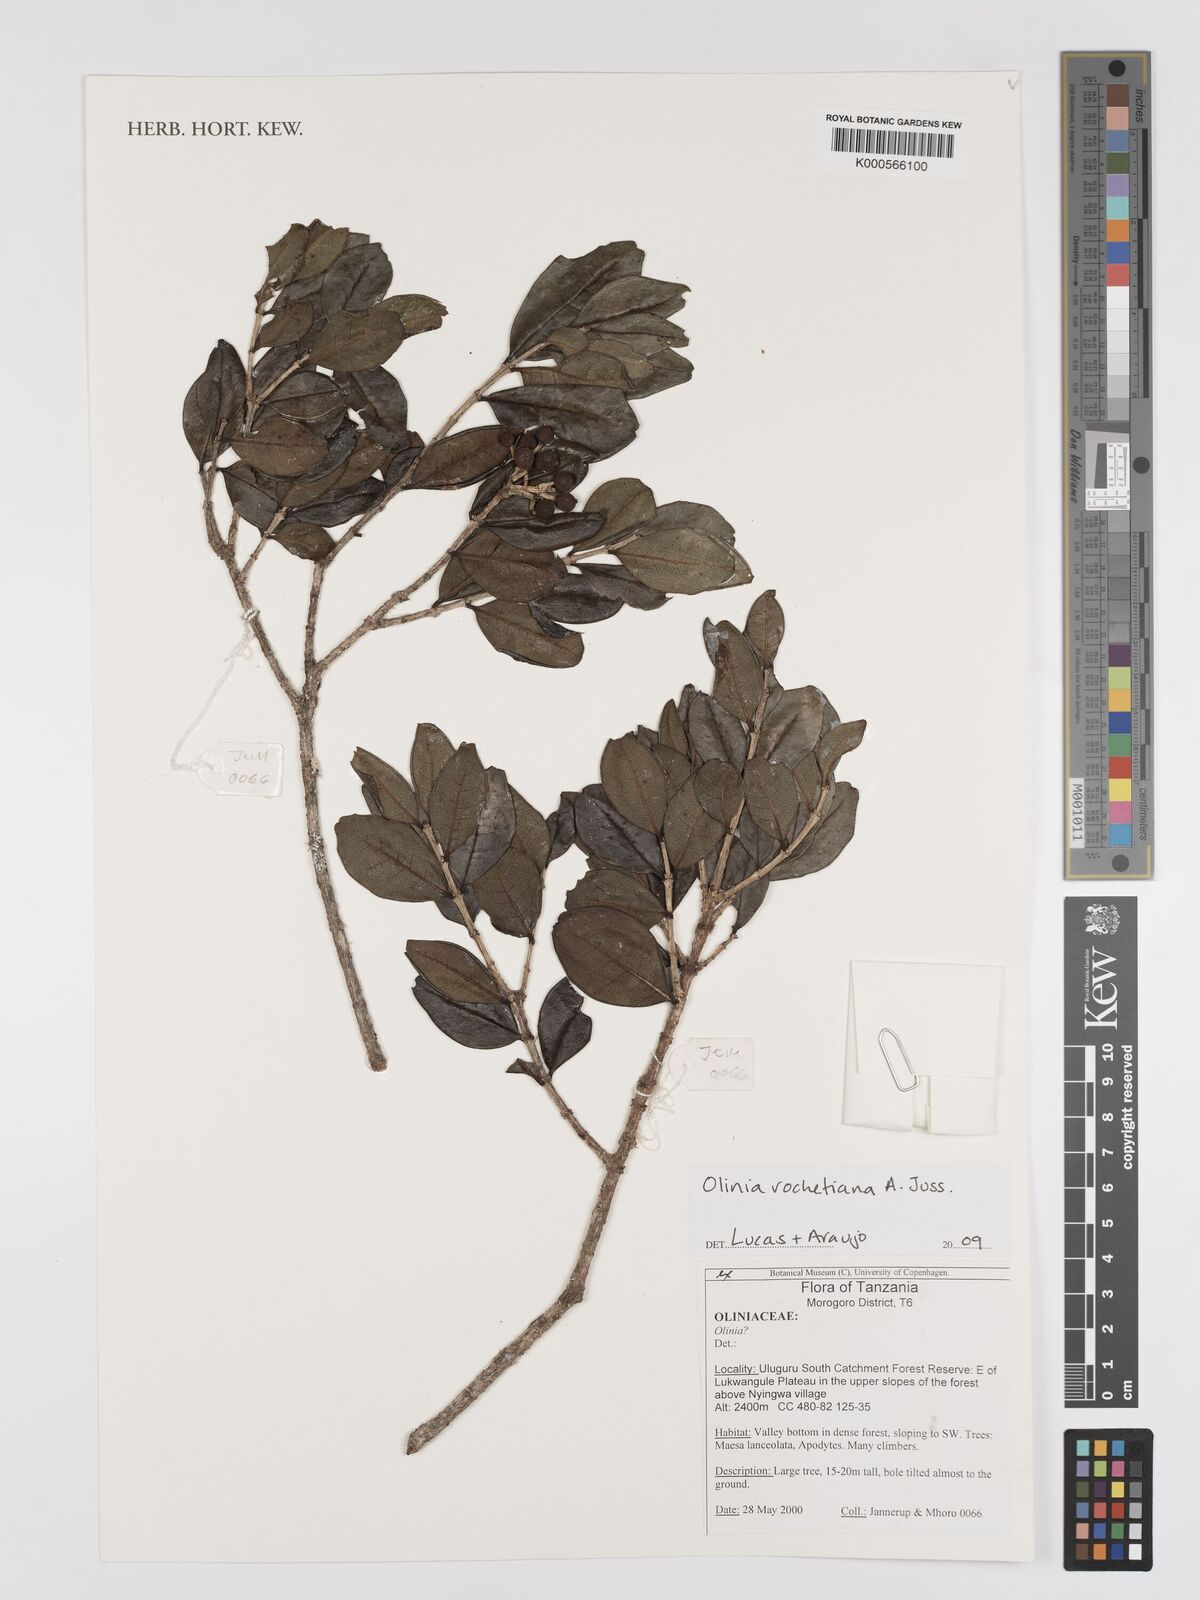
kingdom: Plantae
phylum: Tracheophyta
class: Magnoliopsida
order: Myrtales
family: Oliniaceae
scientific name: Oliniaceae
